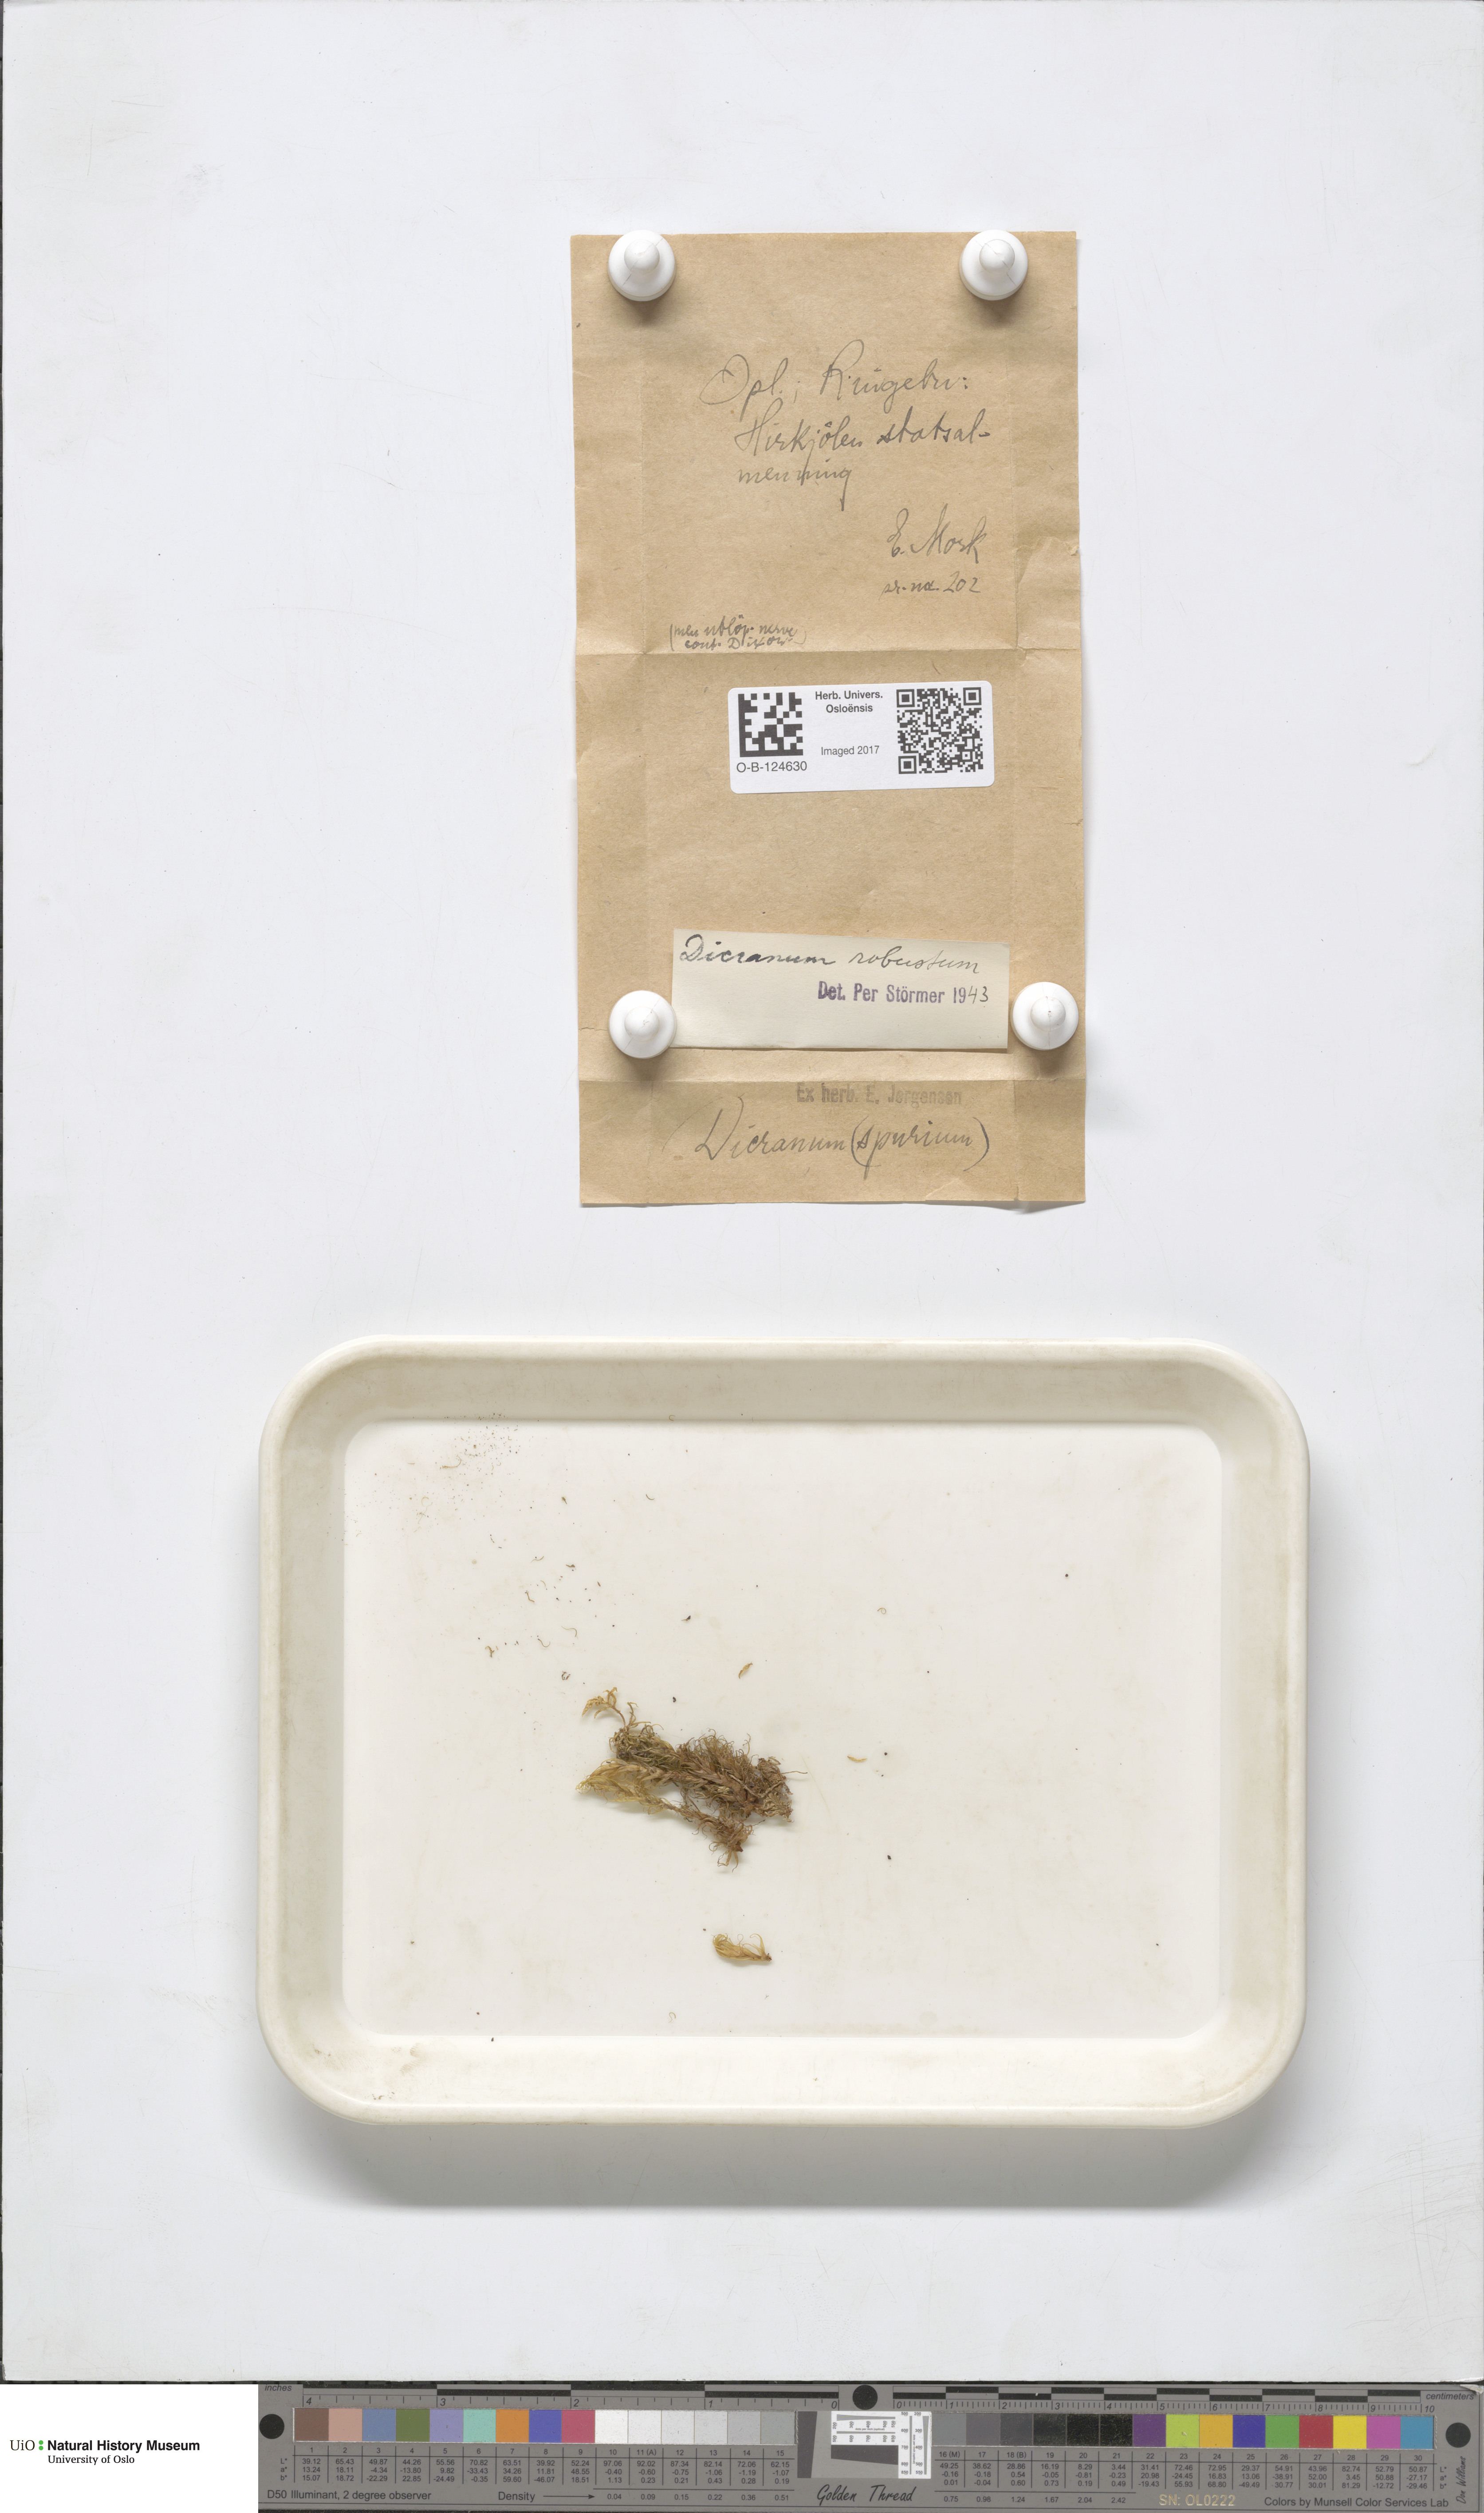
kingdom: Plantae
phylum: Bryophyta
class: Bryopsida
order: Dicranales
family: Dicranaceae
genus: Dicranum
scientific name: Dicranum drummondii
